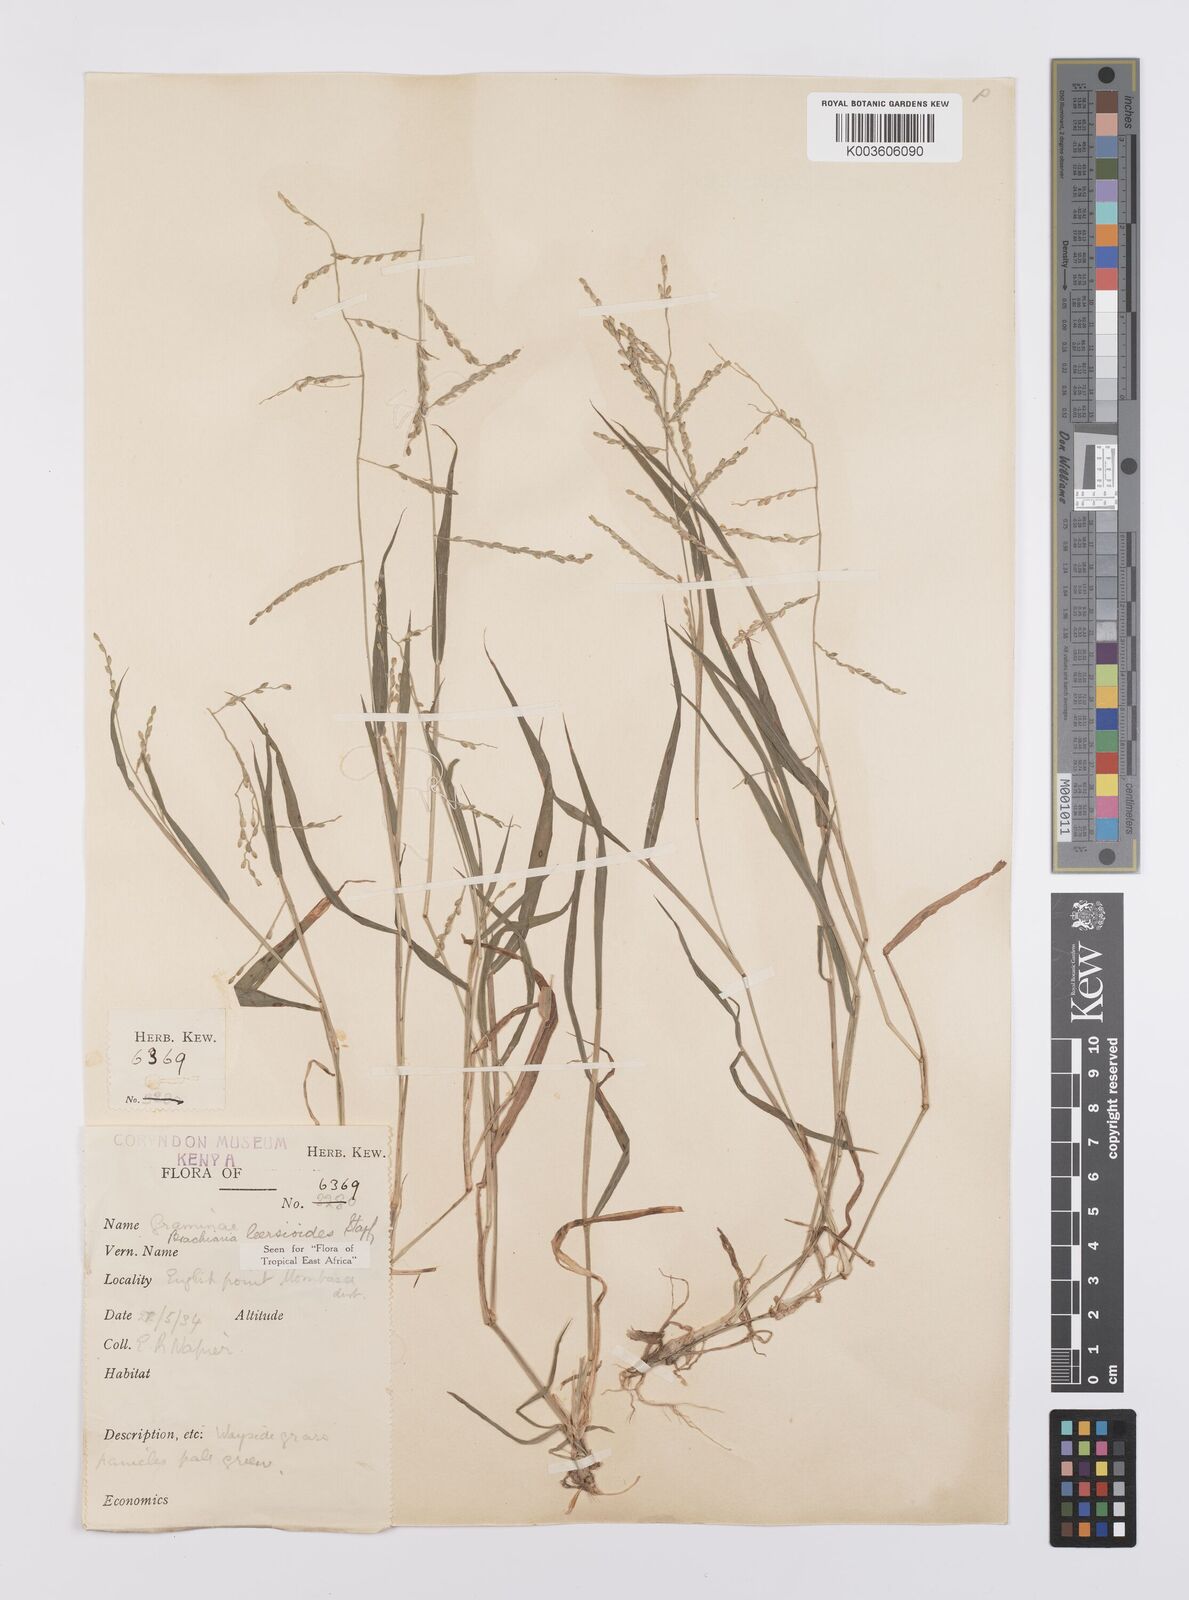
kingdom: Plantae
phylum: Tracheophyta
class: Liliopsida
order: Poales
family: Poaceae
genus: Urochloa
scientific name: Urochloa leersioides
